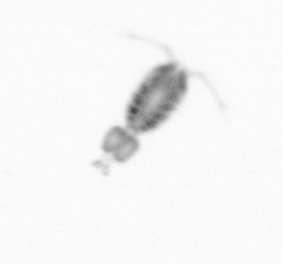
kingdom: Animalia
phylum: Arthropoda
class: Copepoda
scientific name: Copepoda
